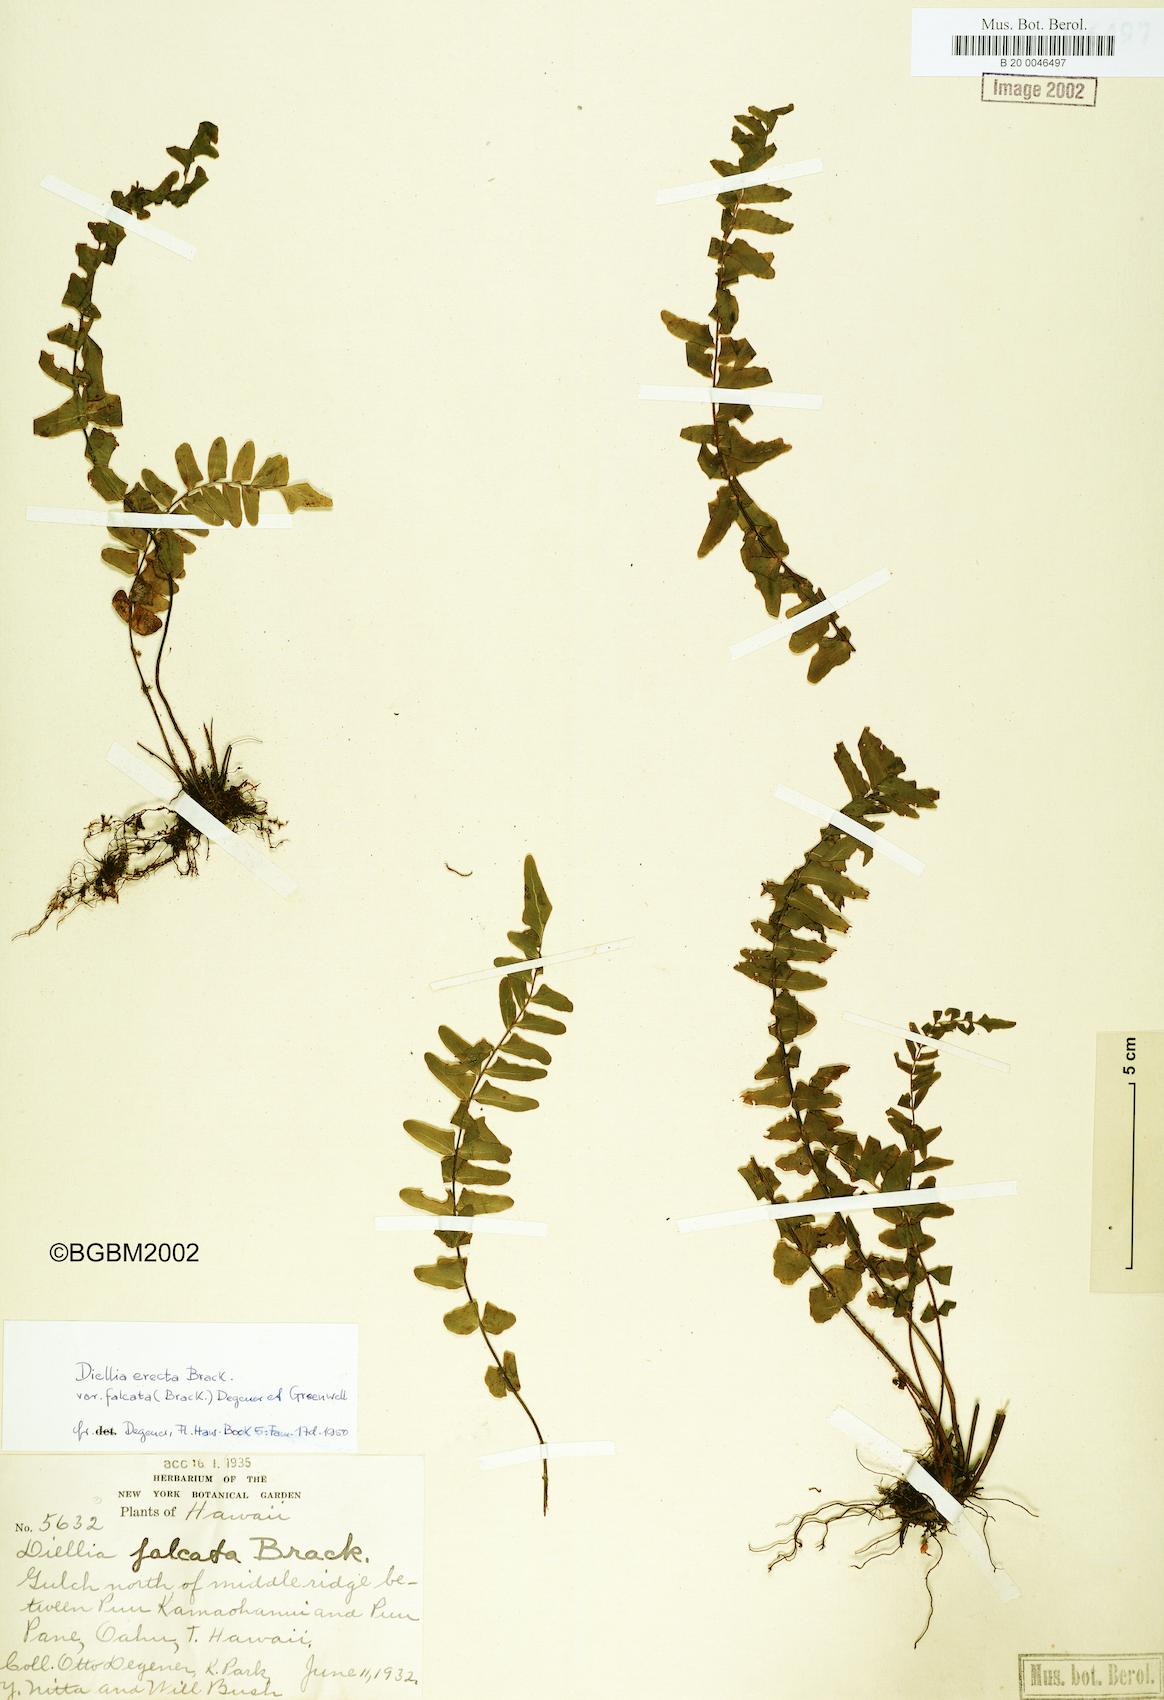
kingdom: Plantae
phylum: Tracheophyta
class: Polypodiopsida
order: Polypodiales
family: Aspleniaceae
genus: Asplenium
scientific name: Asplenium dielfalcatum
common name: Sickle island spleenwort
